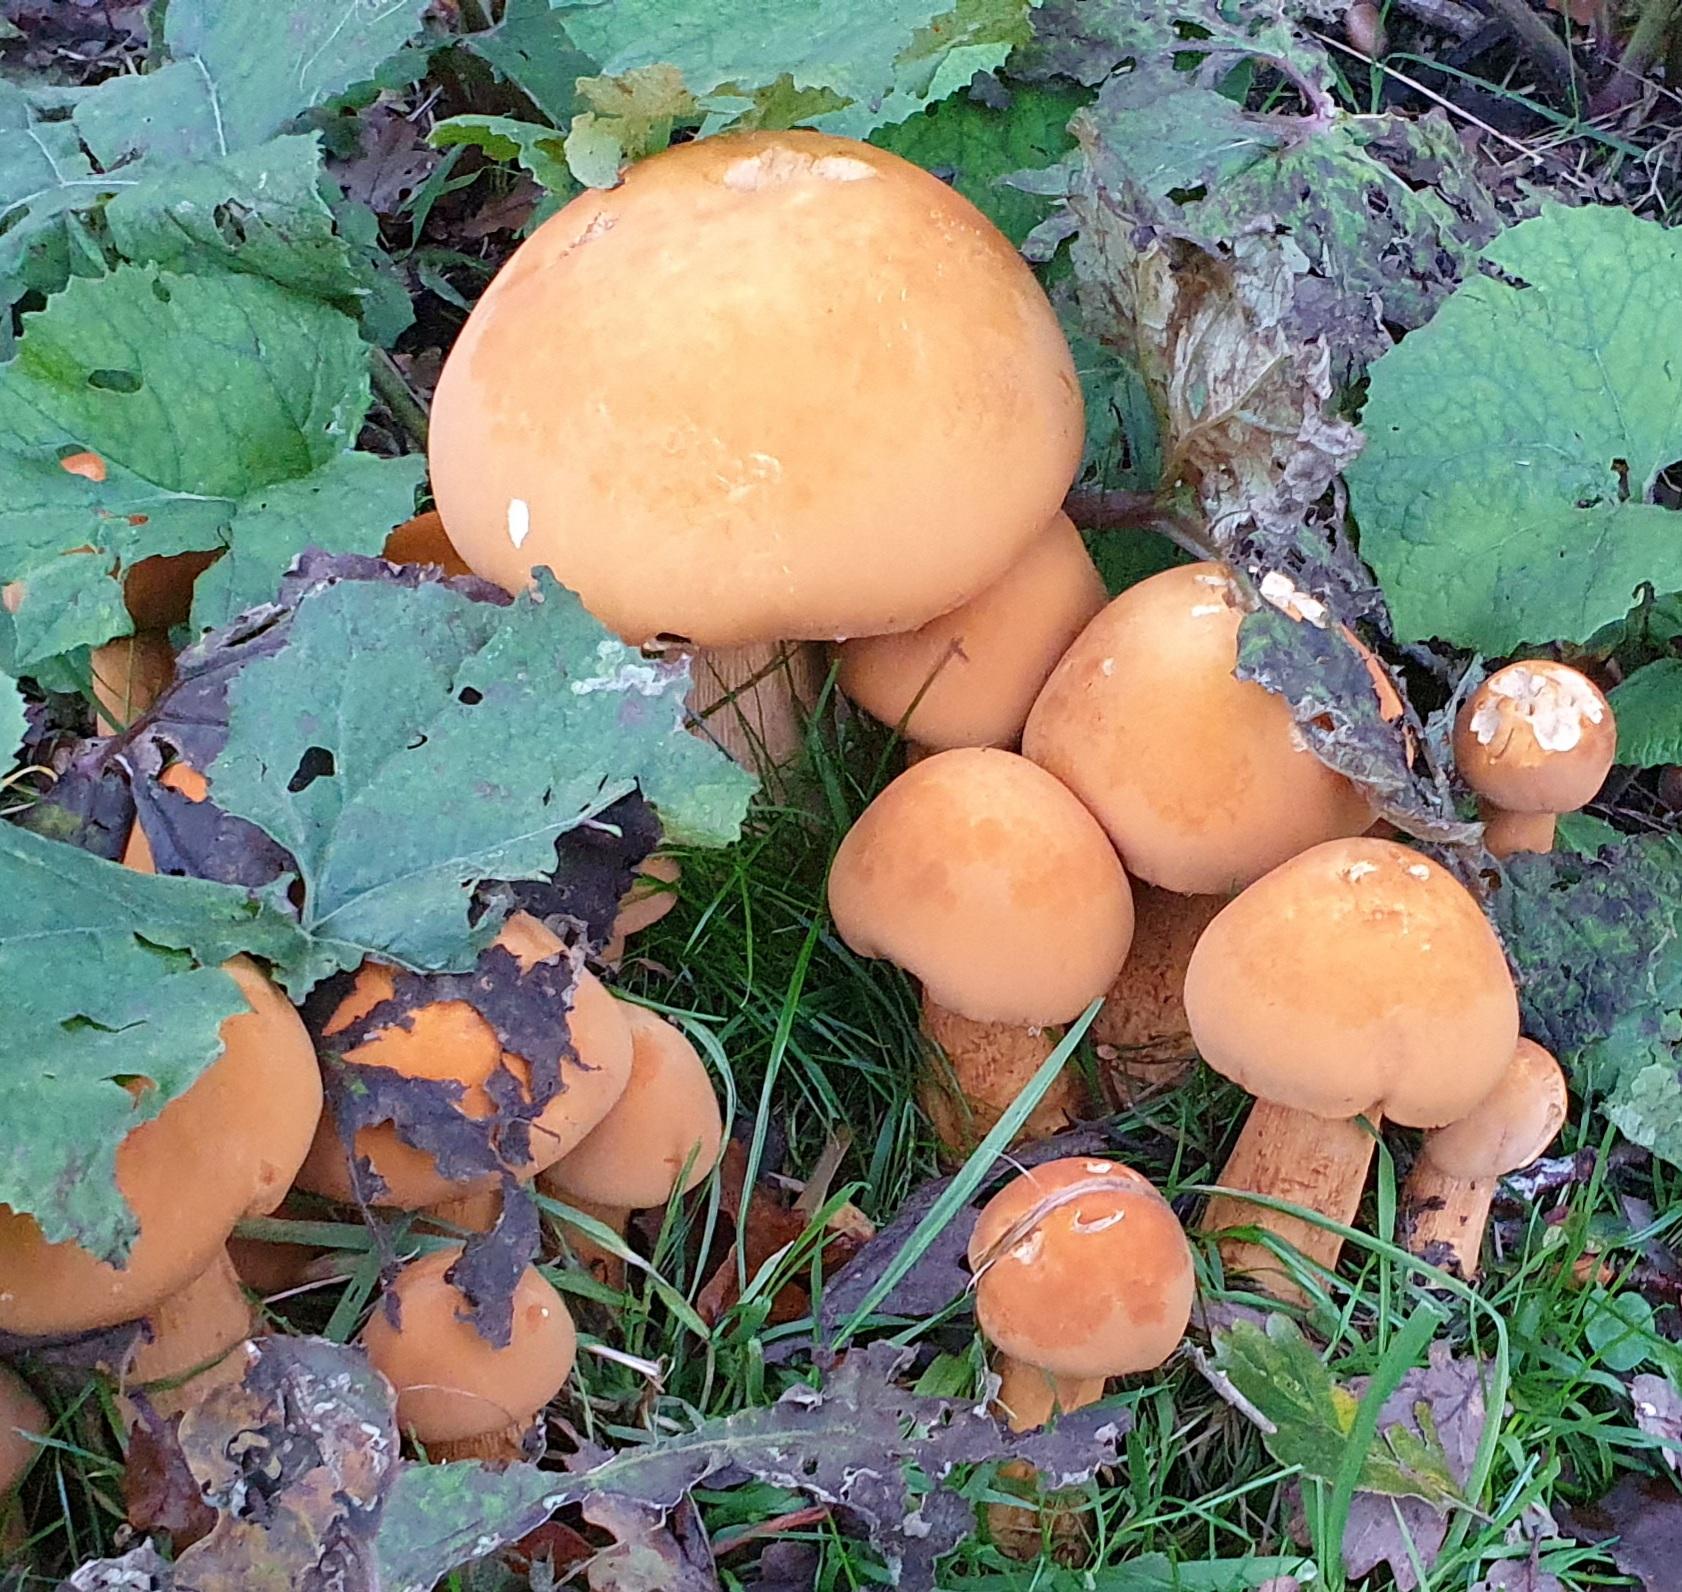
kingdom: Fungi
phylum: Basidiomycota
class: Agaricomycetes
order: Agaricales
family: Tricholomataceae
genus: Phaeolepiota
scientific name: Phaeolepiota aurea
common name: gyldenhat
